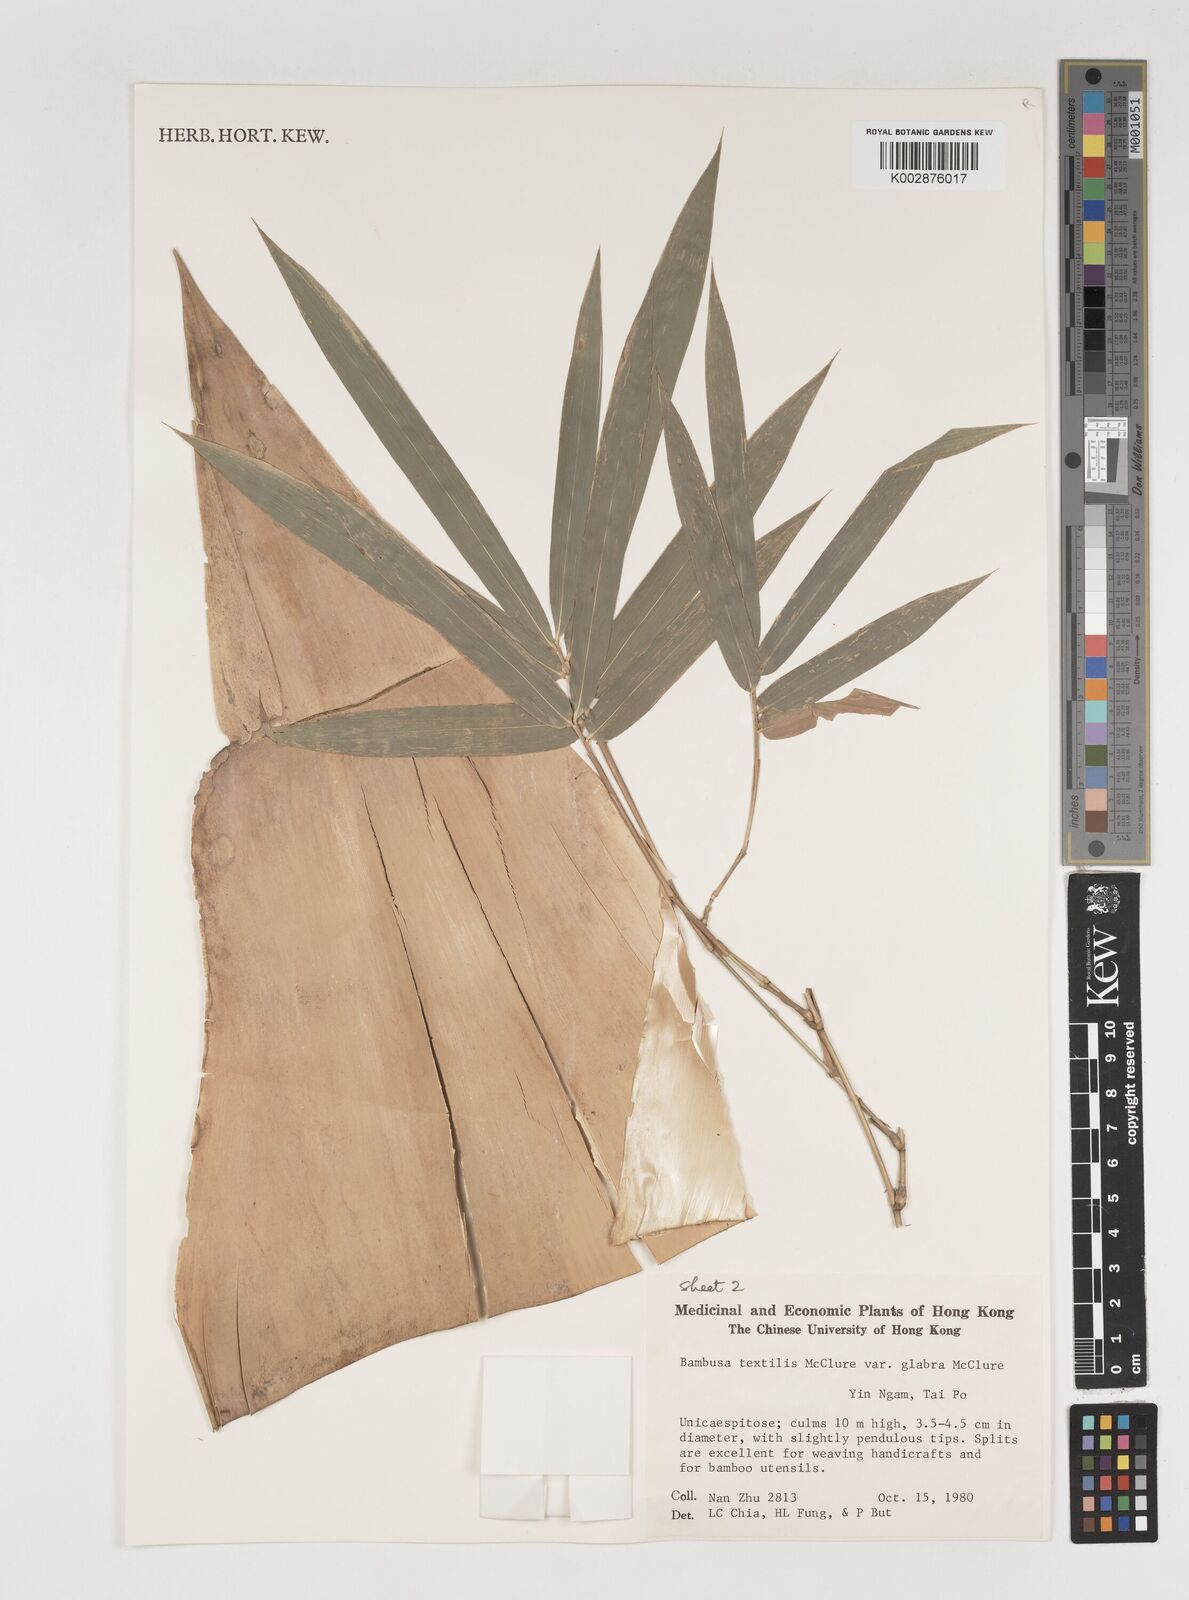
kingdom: Plantae
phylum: Tracheophyta
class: Liliopsida
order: Poales
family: Poaceae
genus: Bambusa
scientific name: Bambusa textilis
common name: Weaver's bamboo
